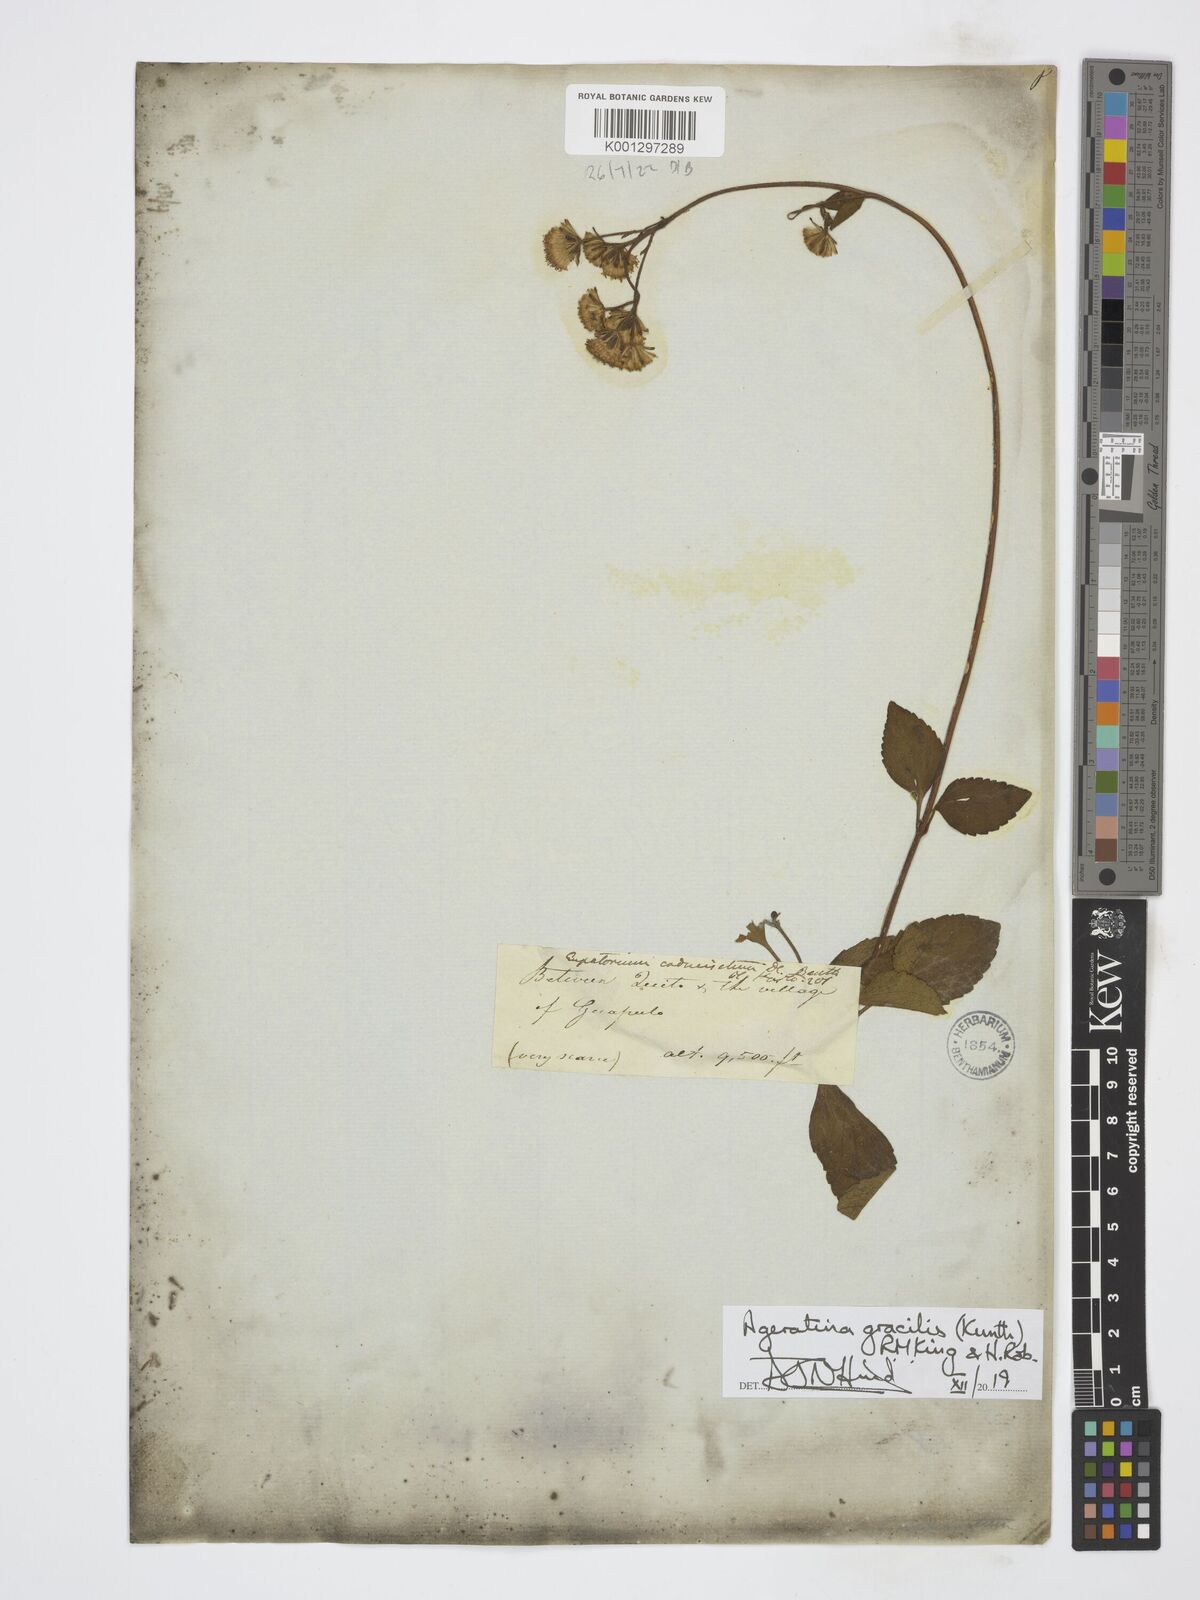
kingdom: Plantae
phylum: Tracheophyta
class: Magnoliopsida
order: Asterales
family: Asteraceae
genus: Ageratina
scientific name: Ageratina gracilis
